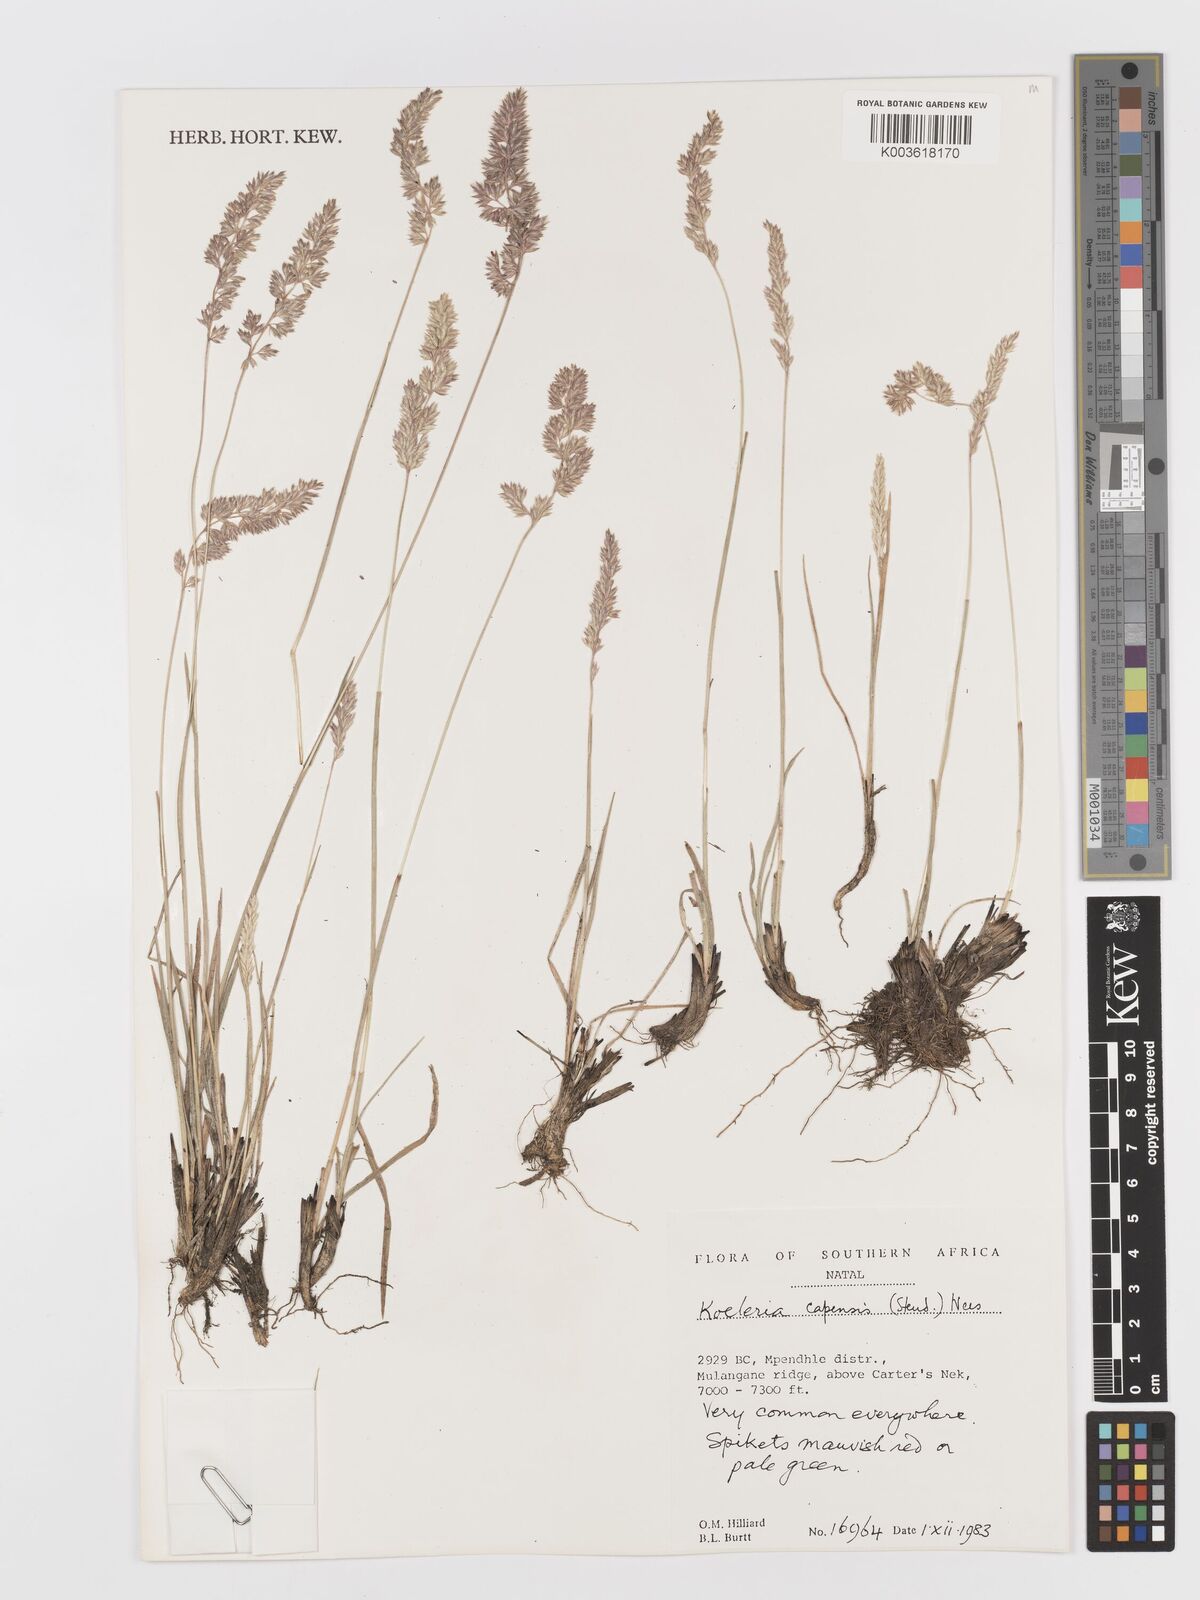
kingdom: Plantae
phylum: Tracheophyta
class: Liliopsida
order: Poales
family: Poaceae
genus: Koeleria
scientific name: Koeleria capensis
